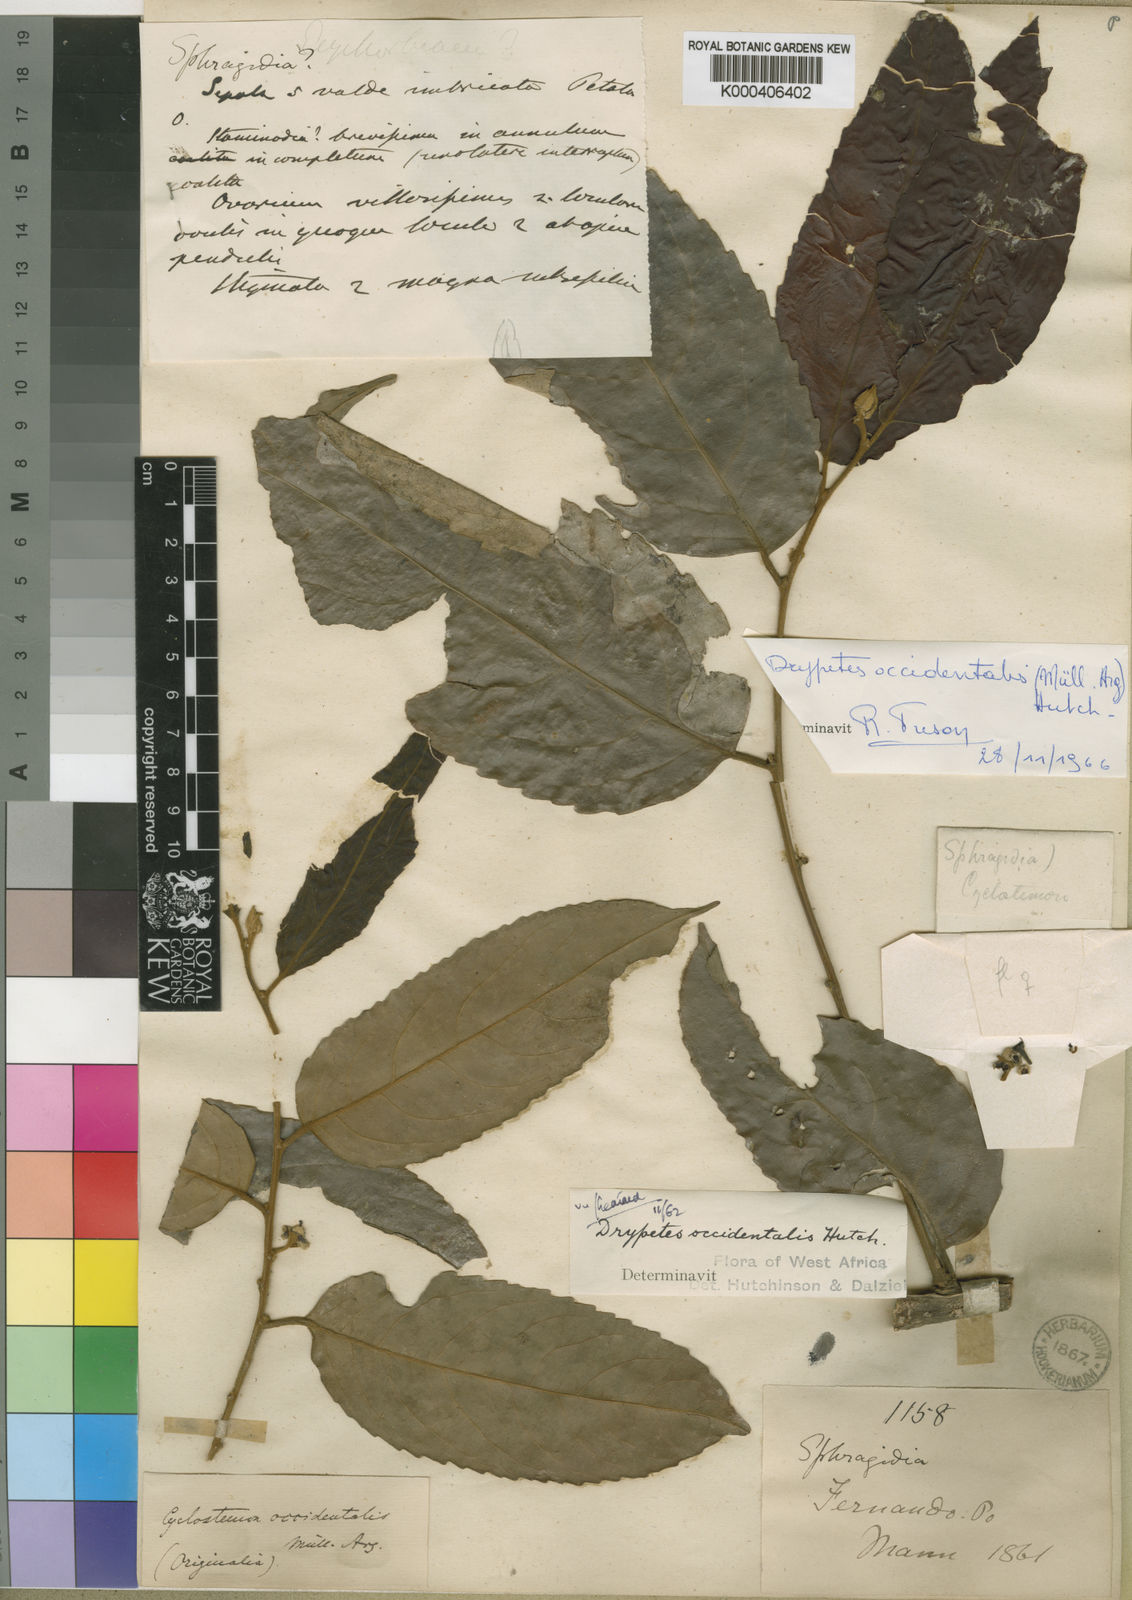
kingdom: Plantae
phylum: Tracheophyta
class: Magnoliopsida
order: Malpighiales
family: Putranjivaceae
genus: Drypetes
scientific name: Drypetes
